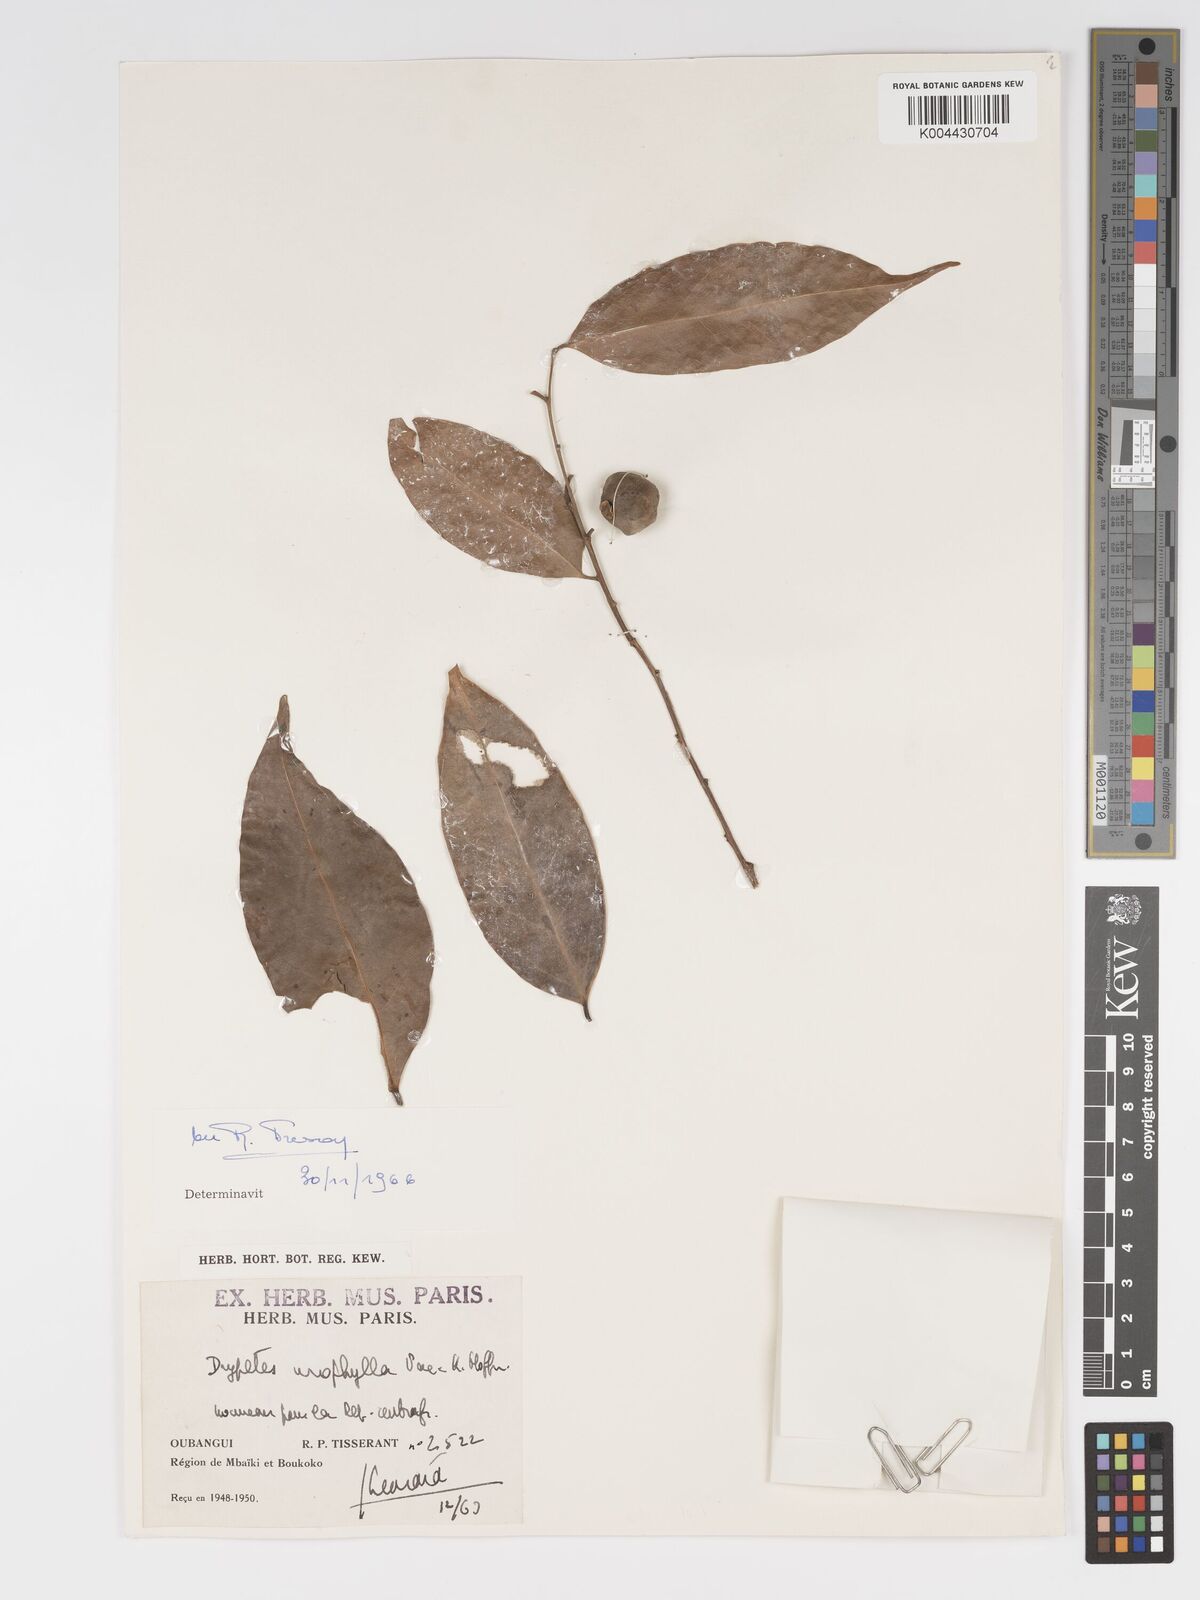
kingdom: Plantae
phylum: Tracheophyta
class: Magnoliopsida
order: Malpighiales
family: Putranjivaceae
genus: Drypetes
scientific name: Drypetes leonensis
